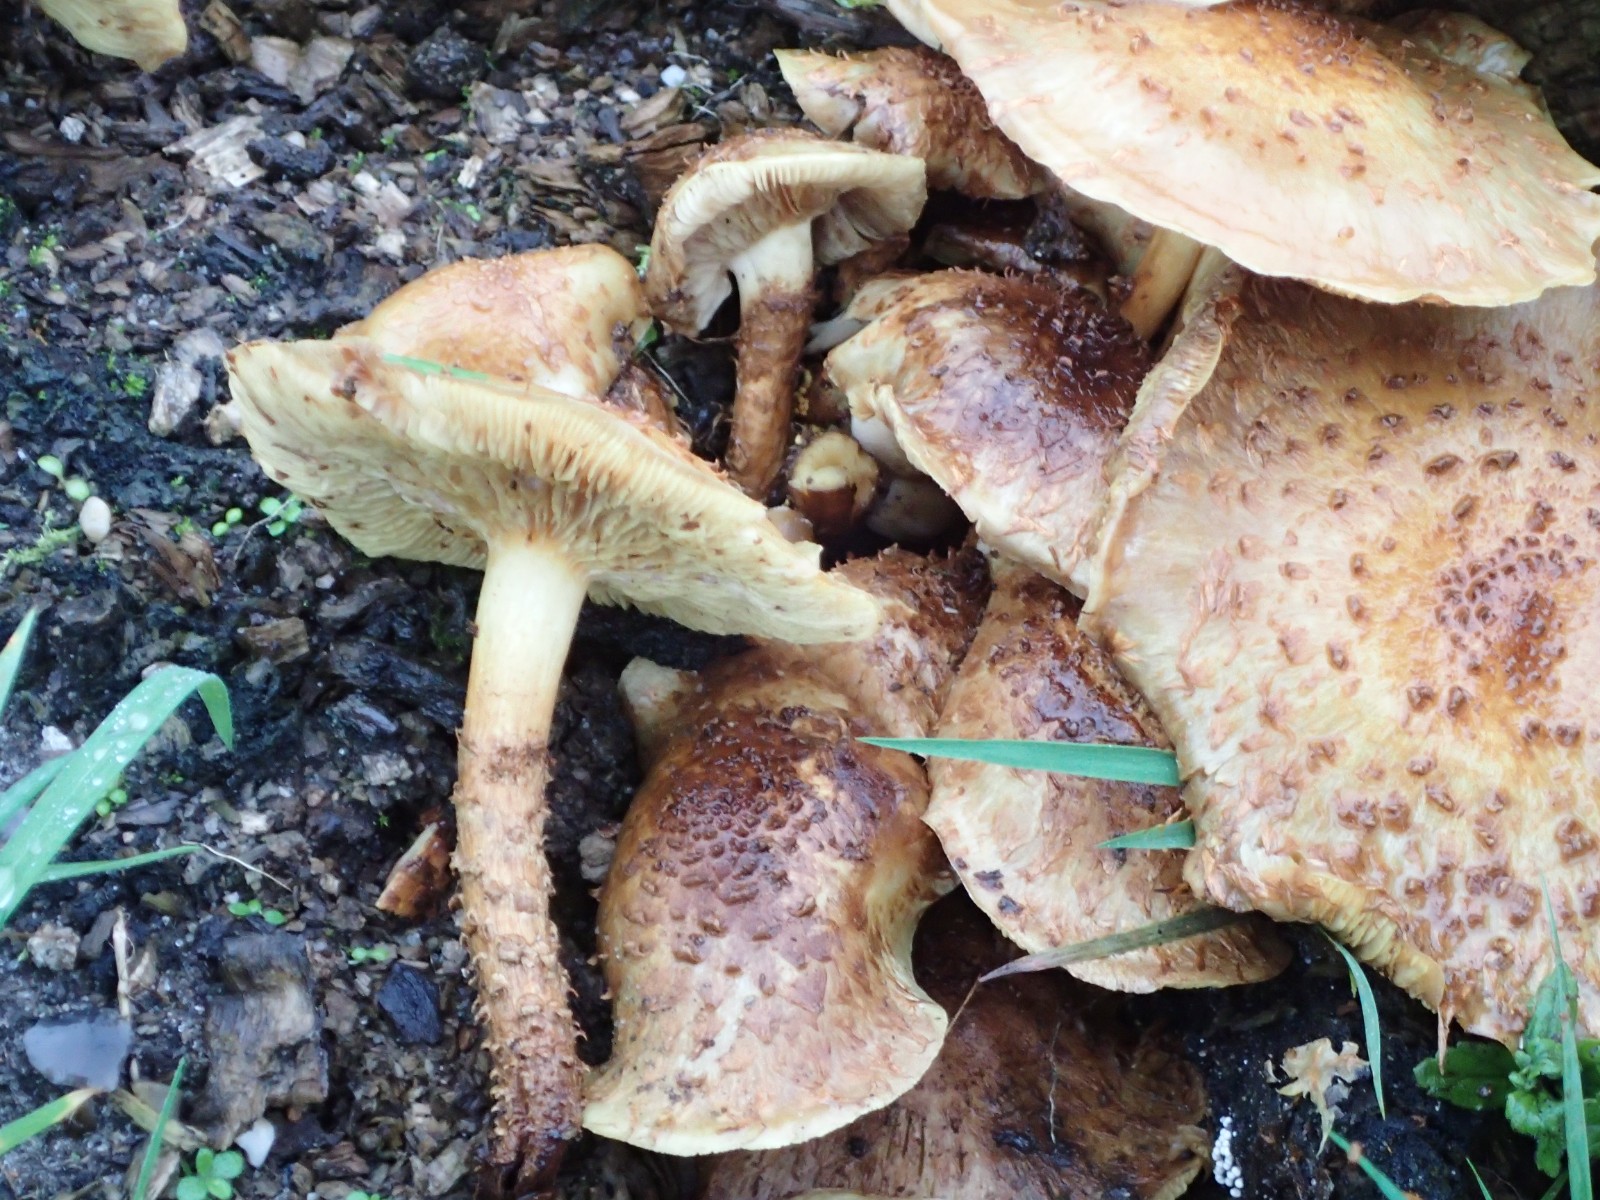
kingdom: Fungi
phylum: Basidiomycota
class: Agaricomycetes
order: Agaricales
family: Strophariaceae
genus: Pholiota
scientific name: Pholiota squarrosa
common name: krumskællet skælhat
